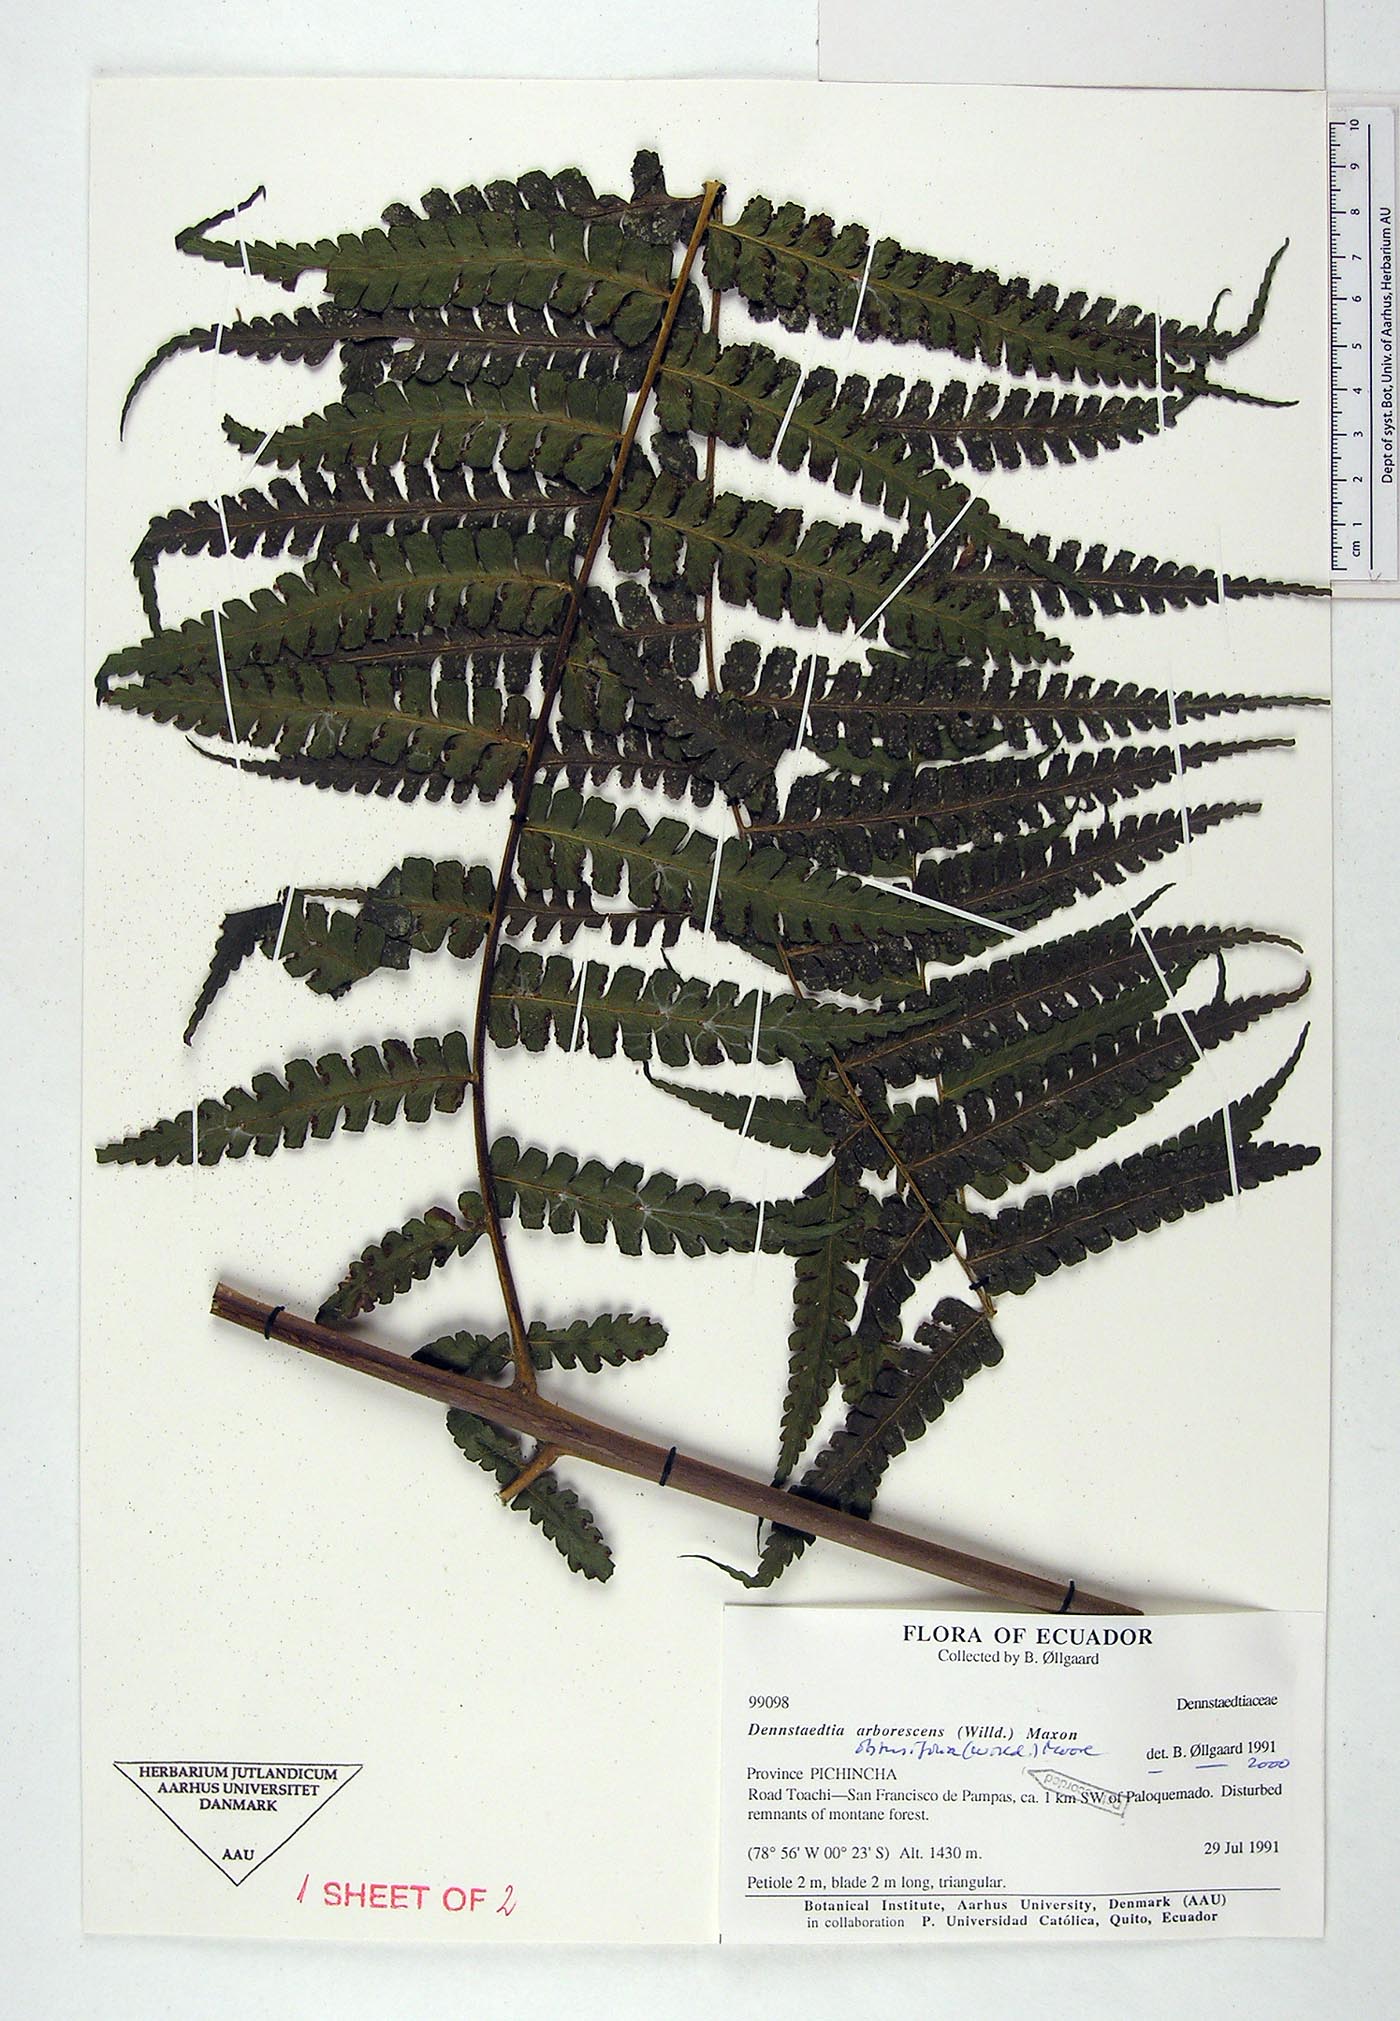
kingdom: Plantae
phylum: Tracheophyta
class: Polypodiopsida
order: Polypodiales
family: Dennstaedtiaceae
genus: Dennstaedtia
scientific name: Dennstaedtia obtusifolia
